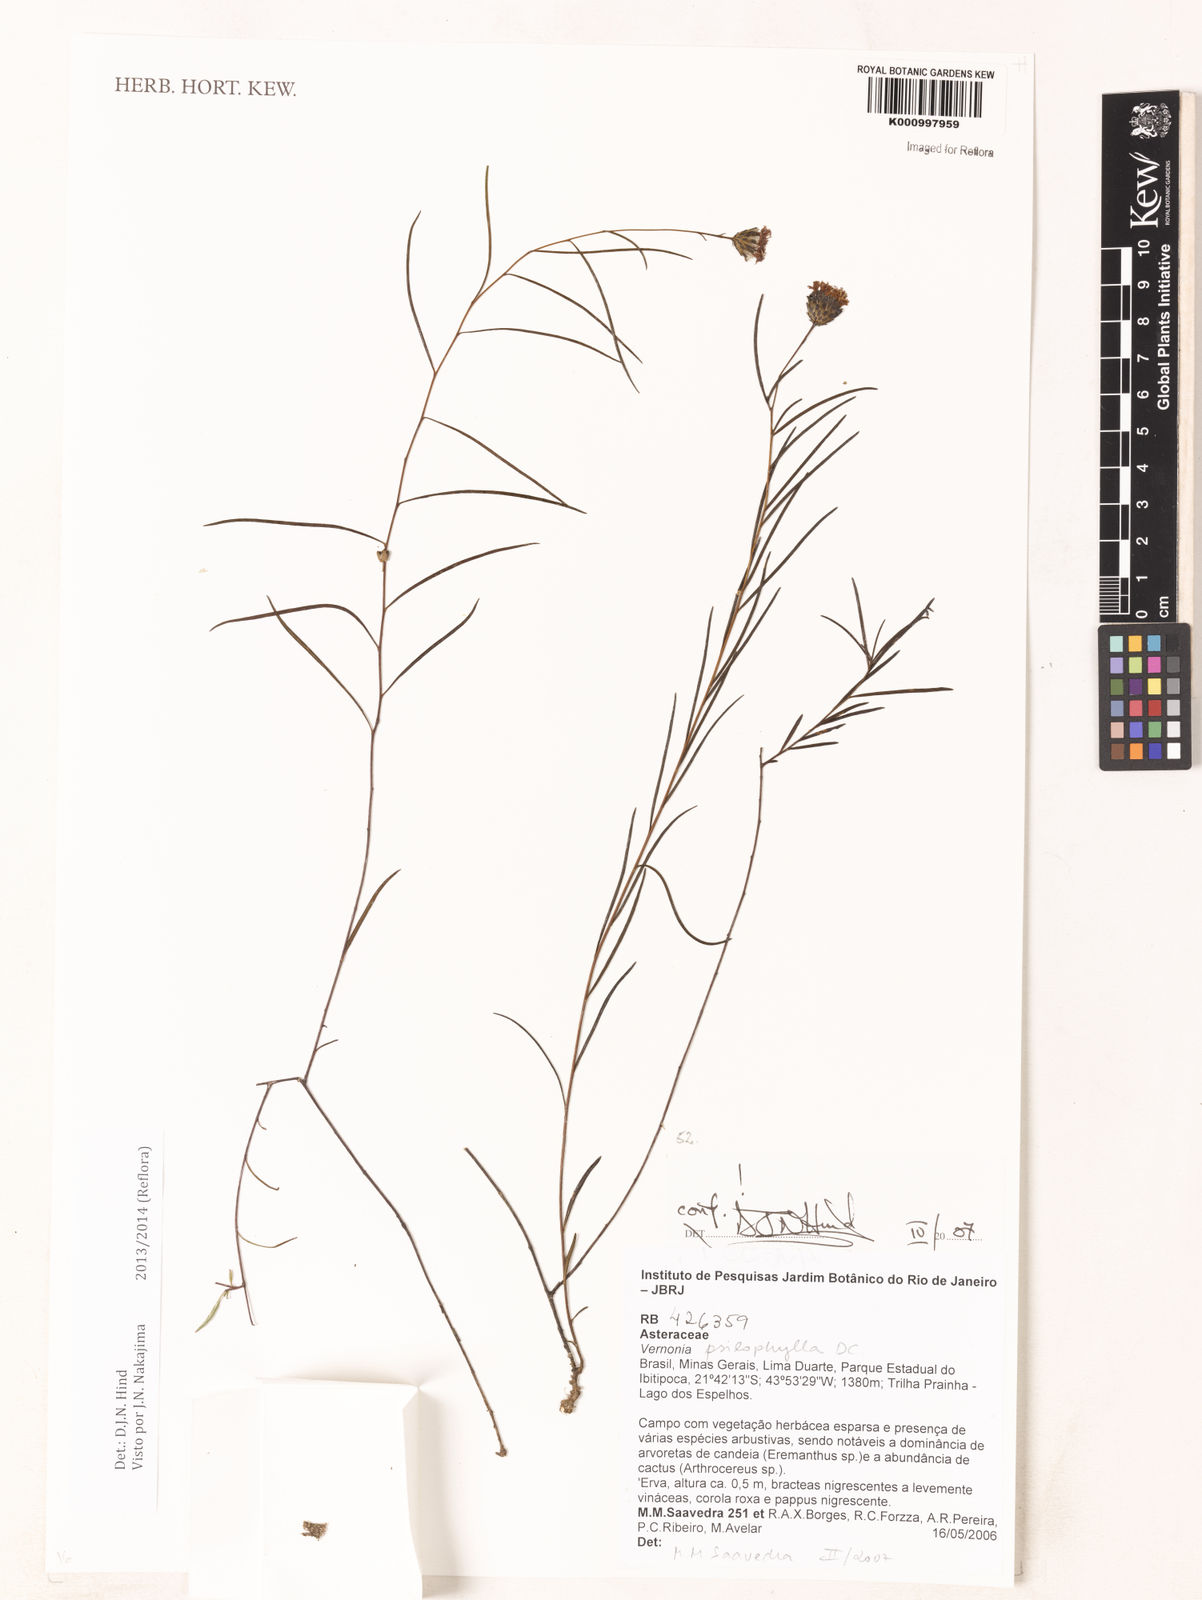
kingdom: Plantae
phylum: Tracheophyta
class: Magnoliopsida
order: Asterales
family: Asteraceae
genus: Lessingianthus
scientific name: Lessingianthus psilophyllus
